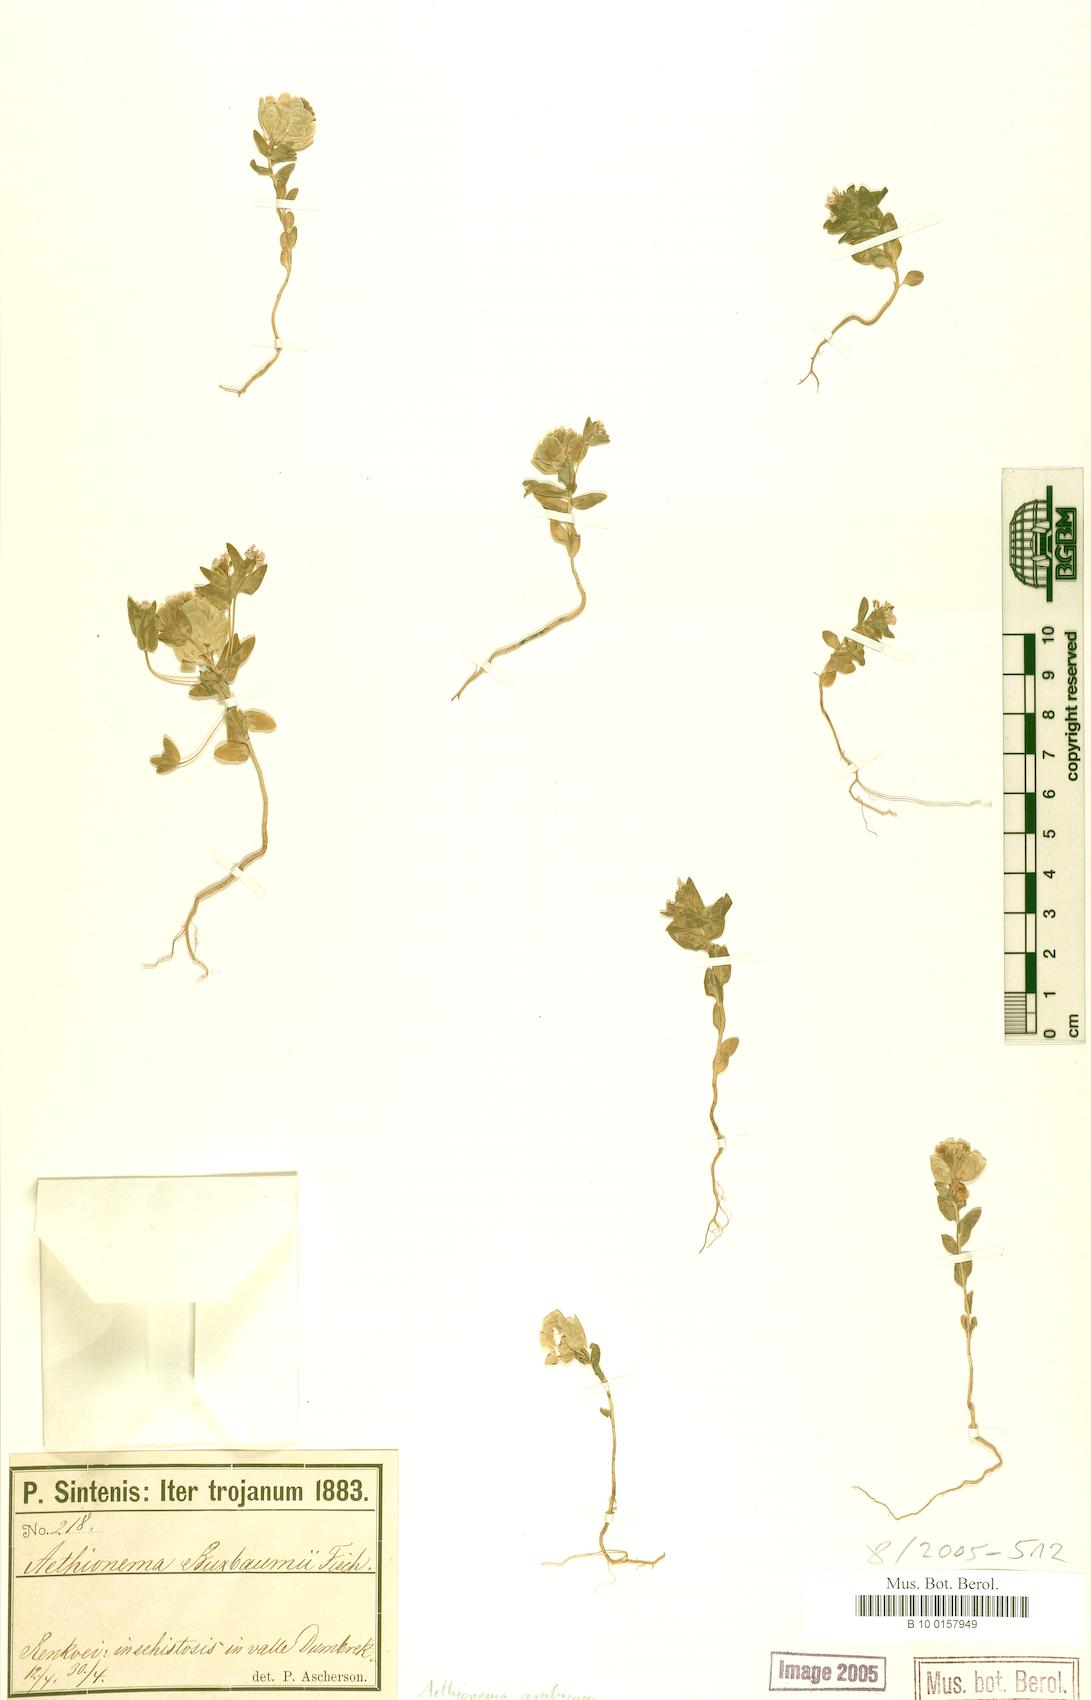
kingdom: Plantae
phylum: Tracheophyta
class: Magnoliopsida
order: Brassicales
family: Brassicaceae
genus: Aethionema
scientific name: Aethionema arabicum
